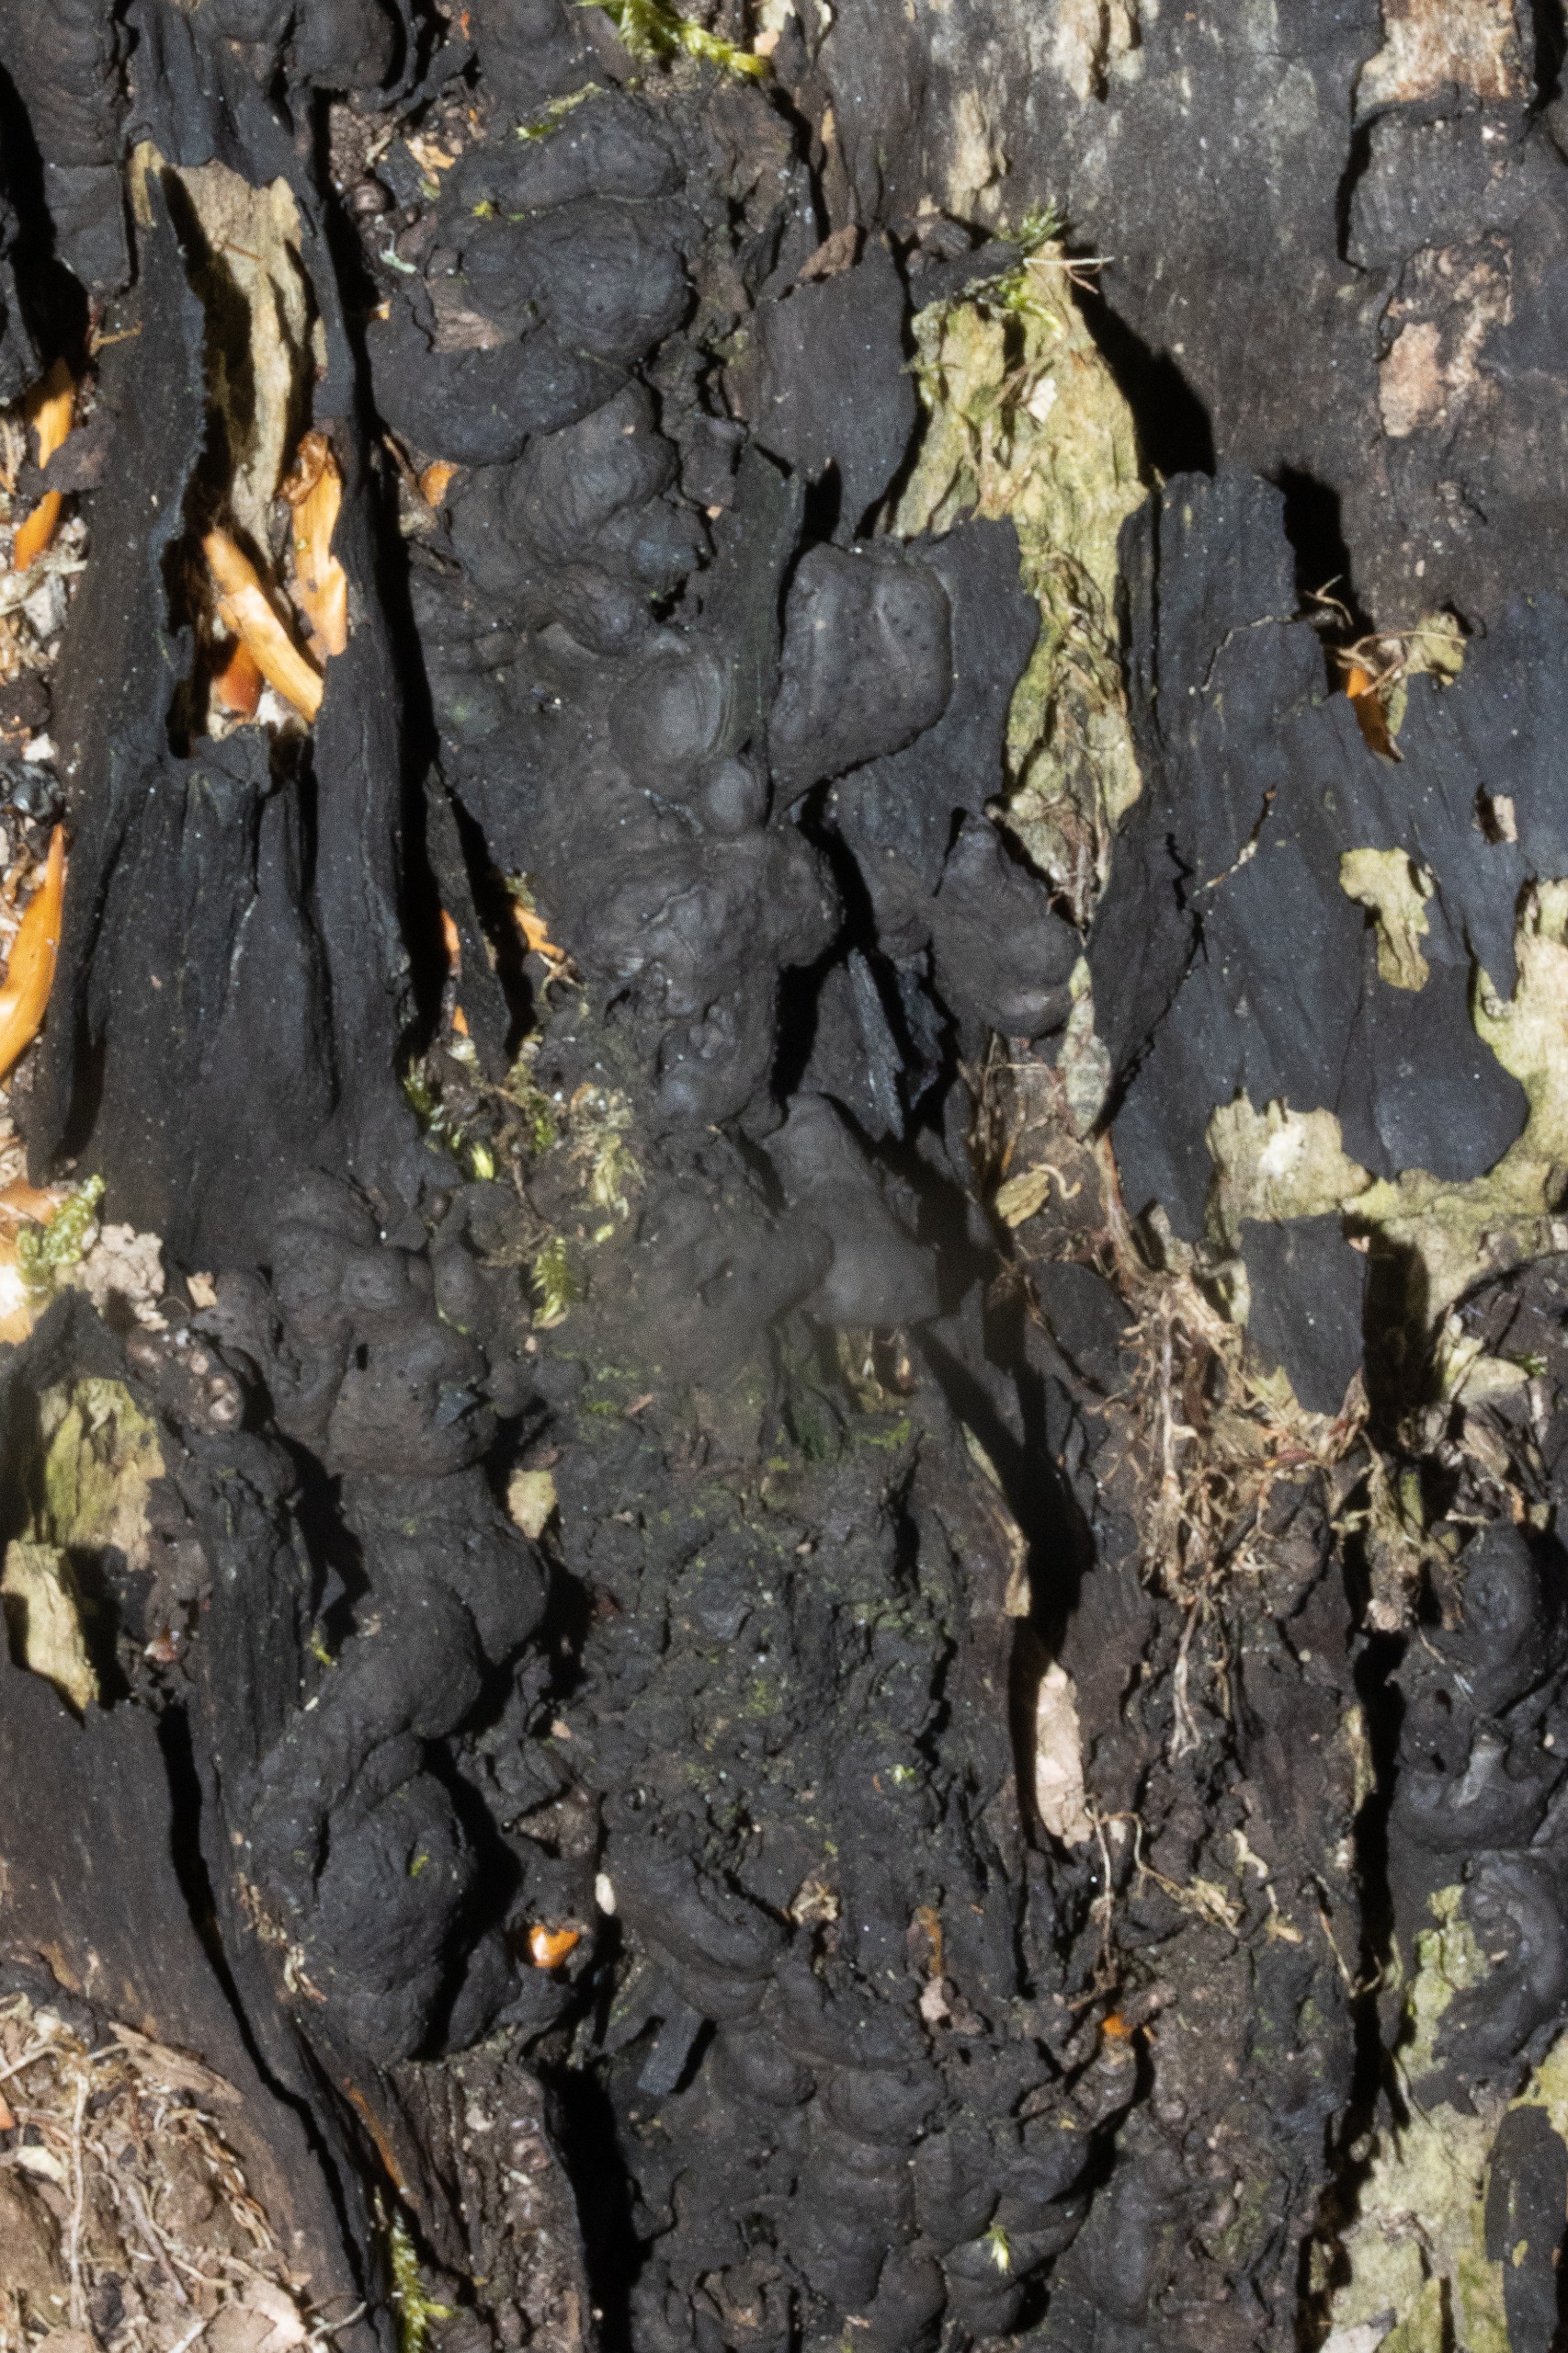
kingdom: Fungi
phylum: Ascomycota
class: Sordariomycetes
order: Xylariales
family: Xylariaceae
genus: Kretzschmaria
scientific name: Kretzschmaria deusta
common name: Stor kulsvamp
